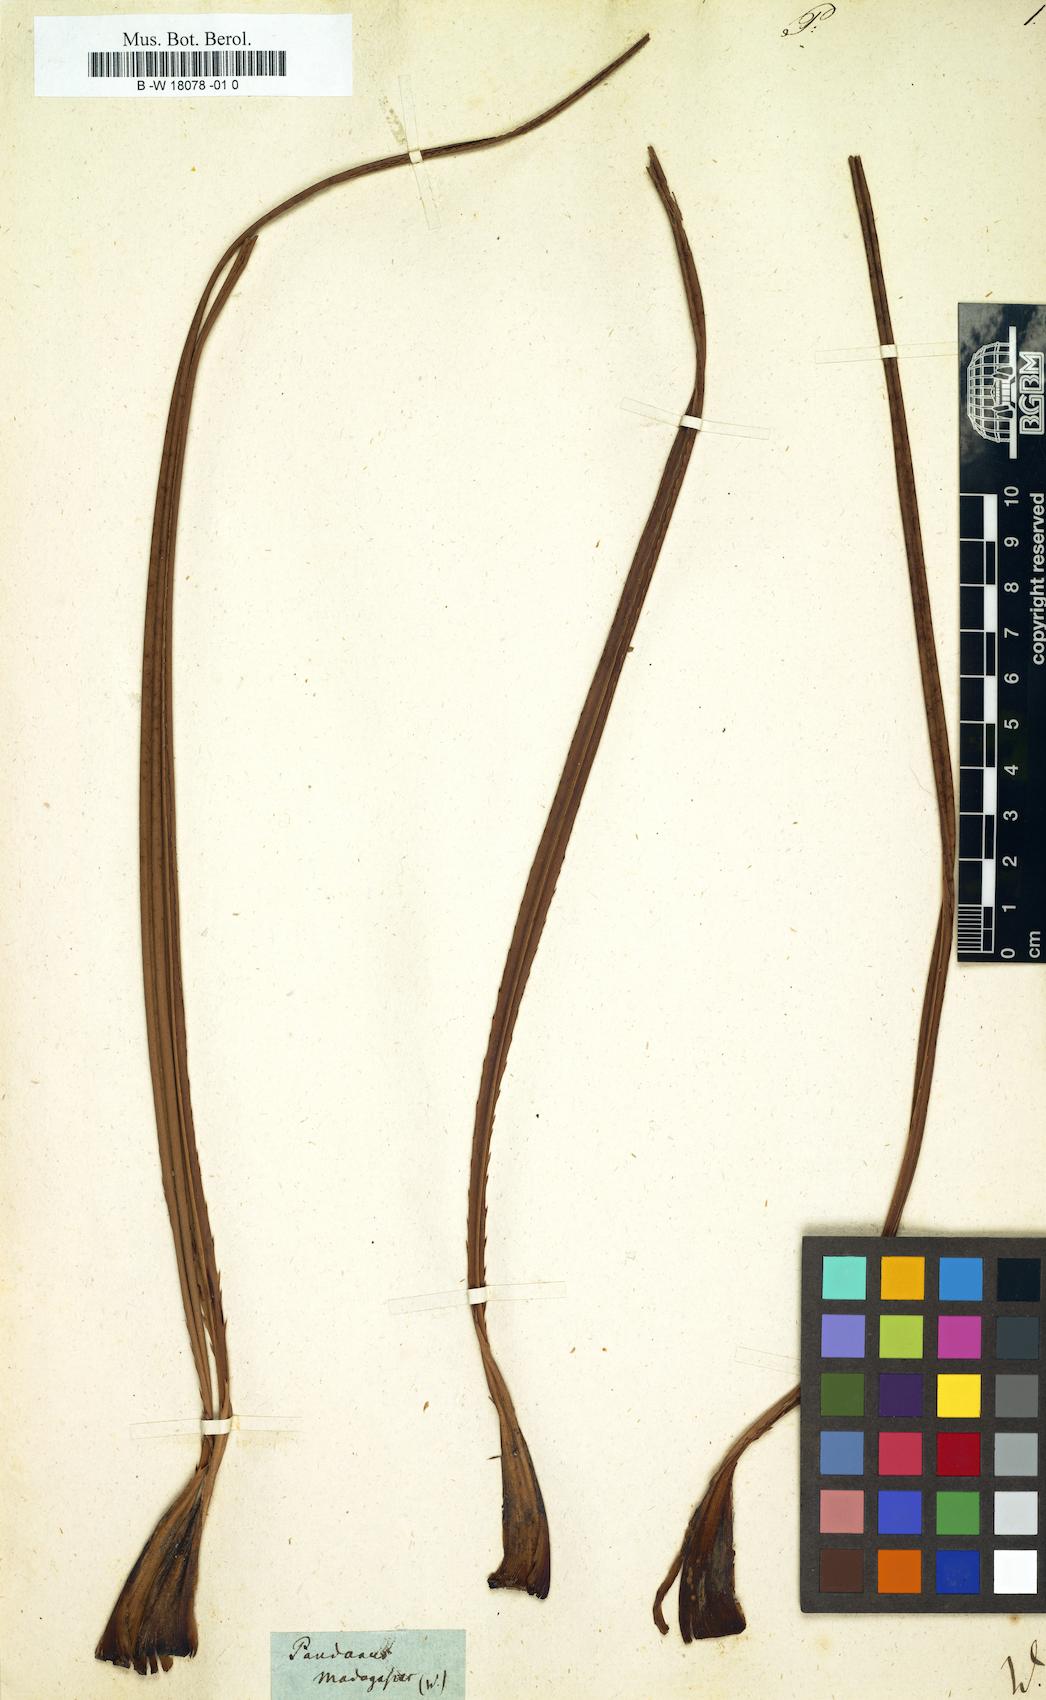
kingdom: Plantae
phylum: Tracheophyta
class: Liliopsida
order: Pandanales
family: Pandanaceae
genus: Pandanus
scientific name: Pandanus
